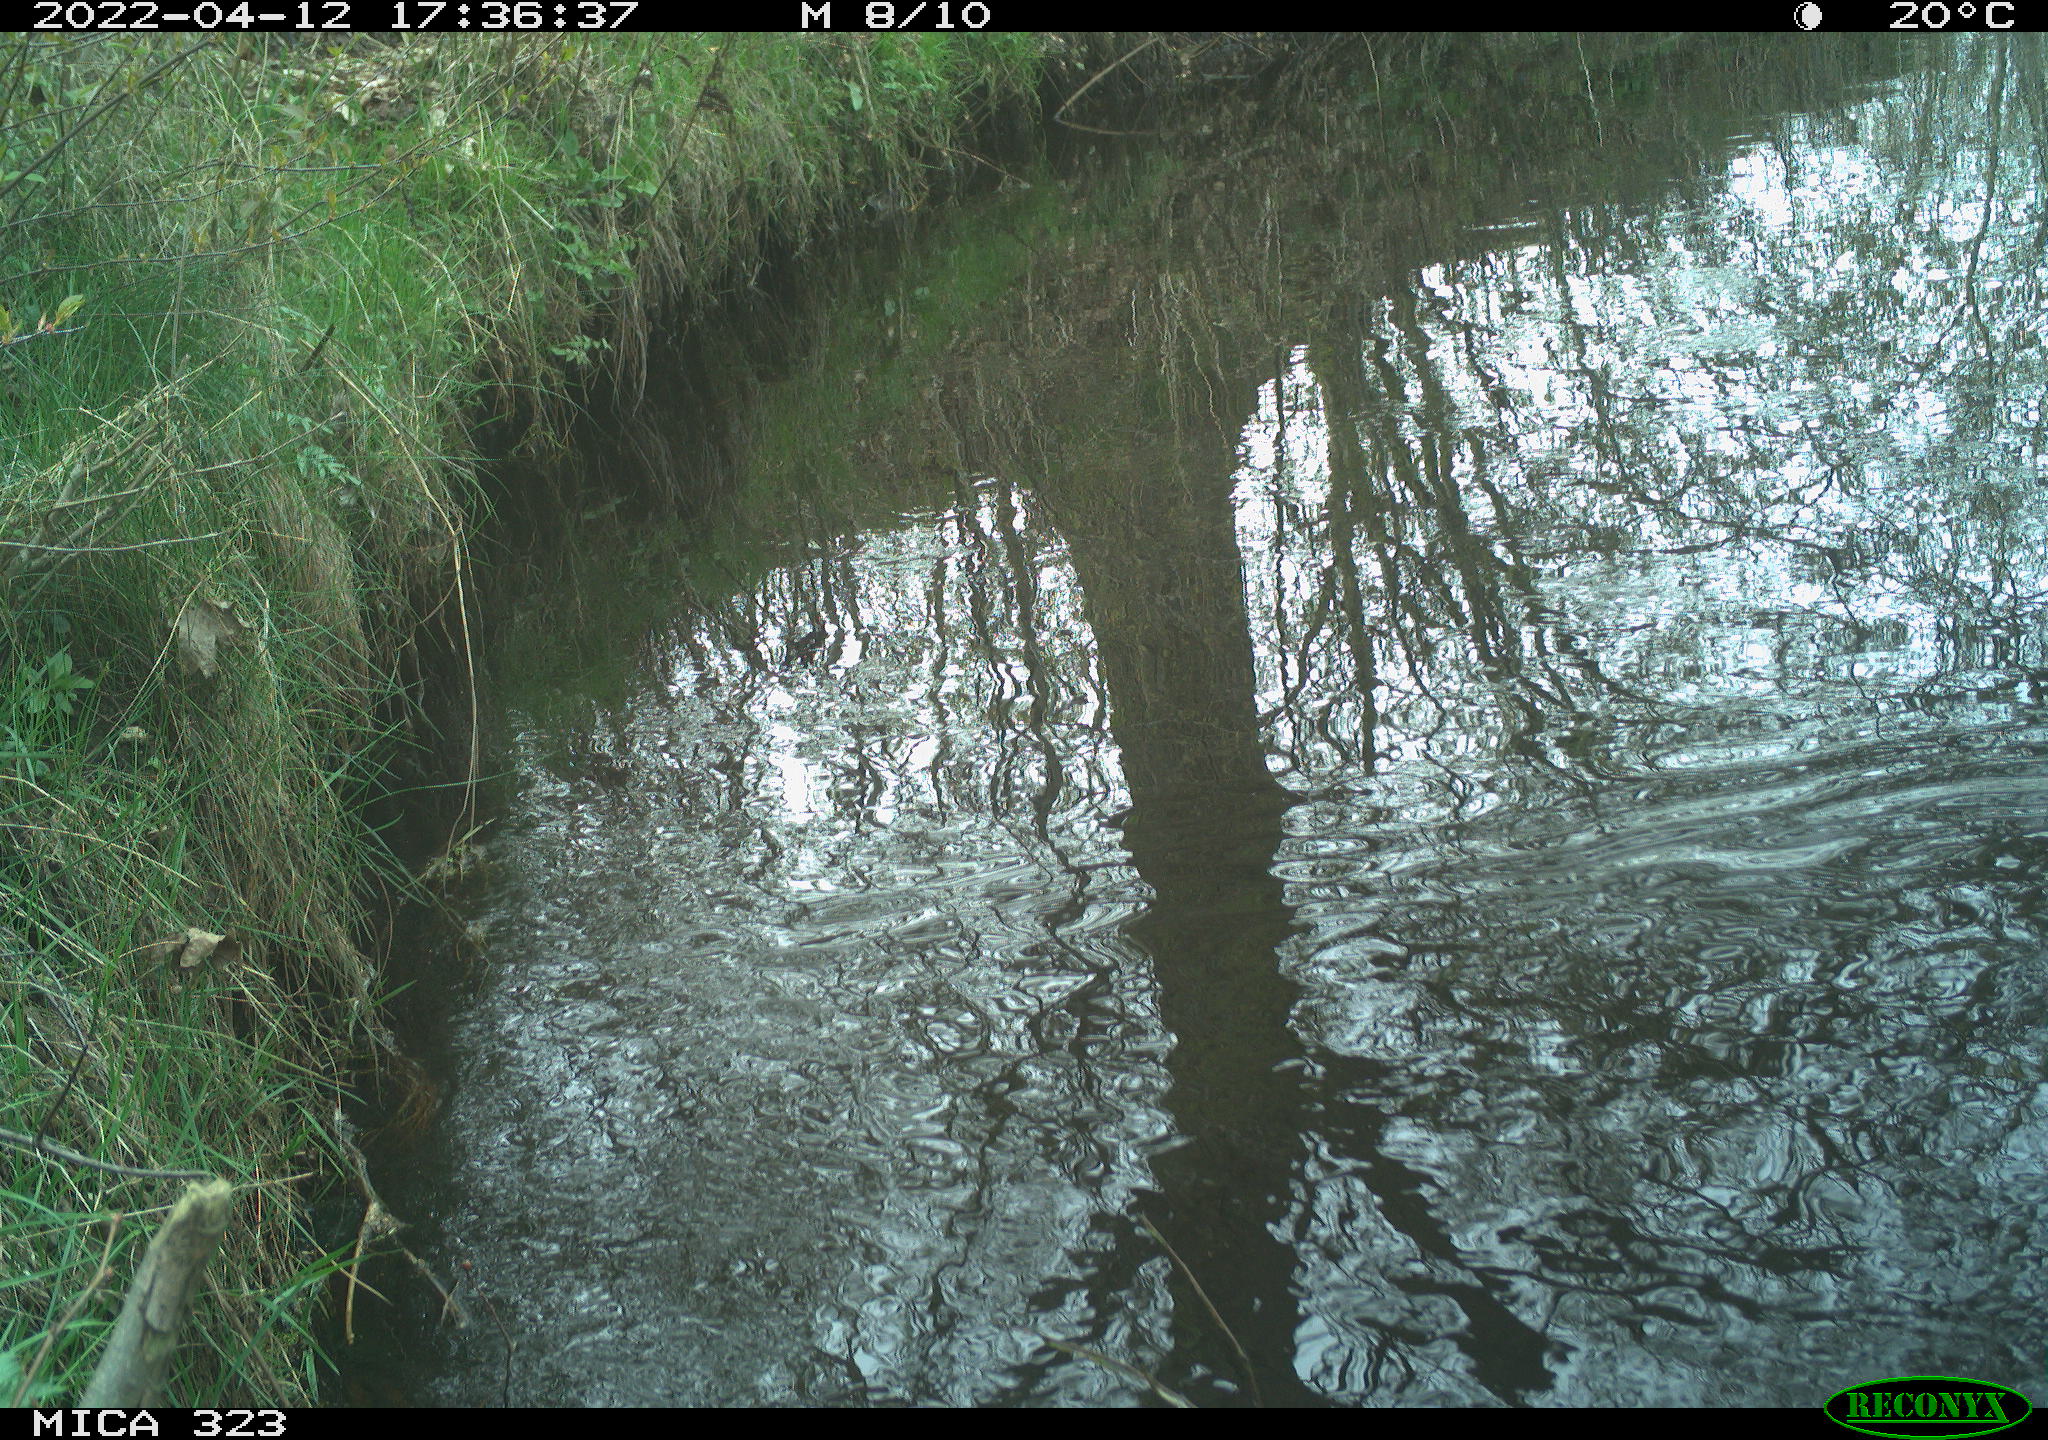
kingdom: Animalia
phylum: Chordata
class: Aves
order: Gruiformes
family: Rallidae
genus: Gallinula
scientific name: Gallinula chloropus
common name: Common moorhen
